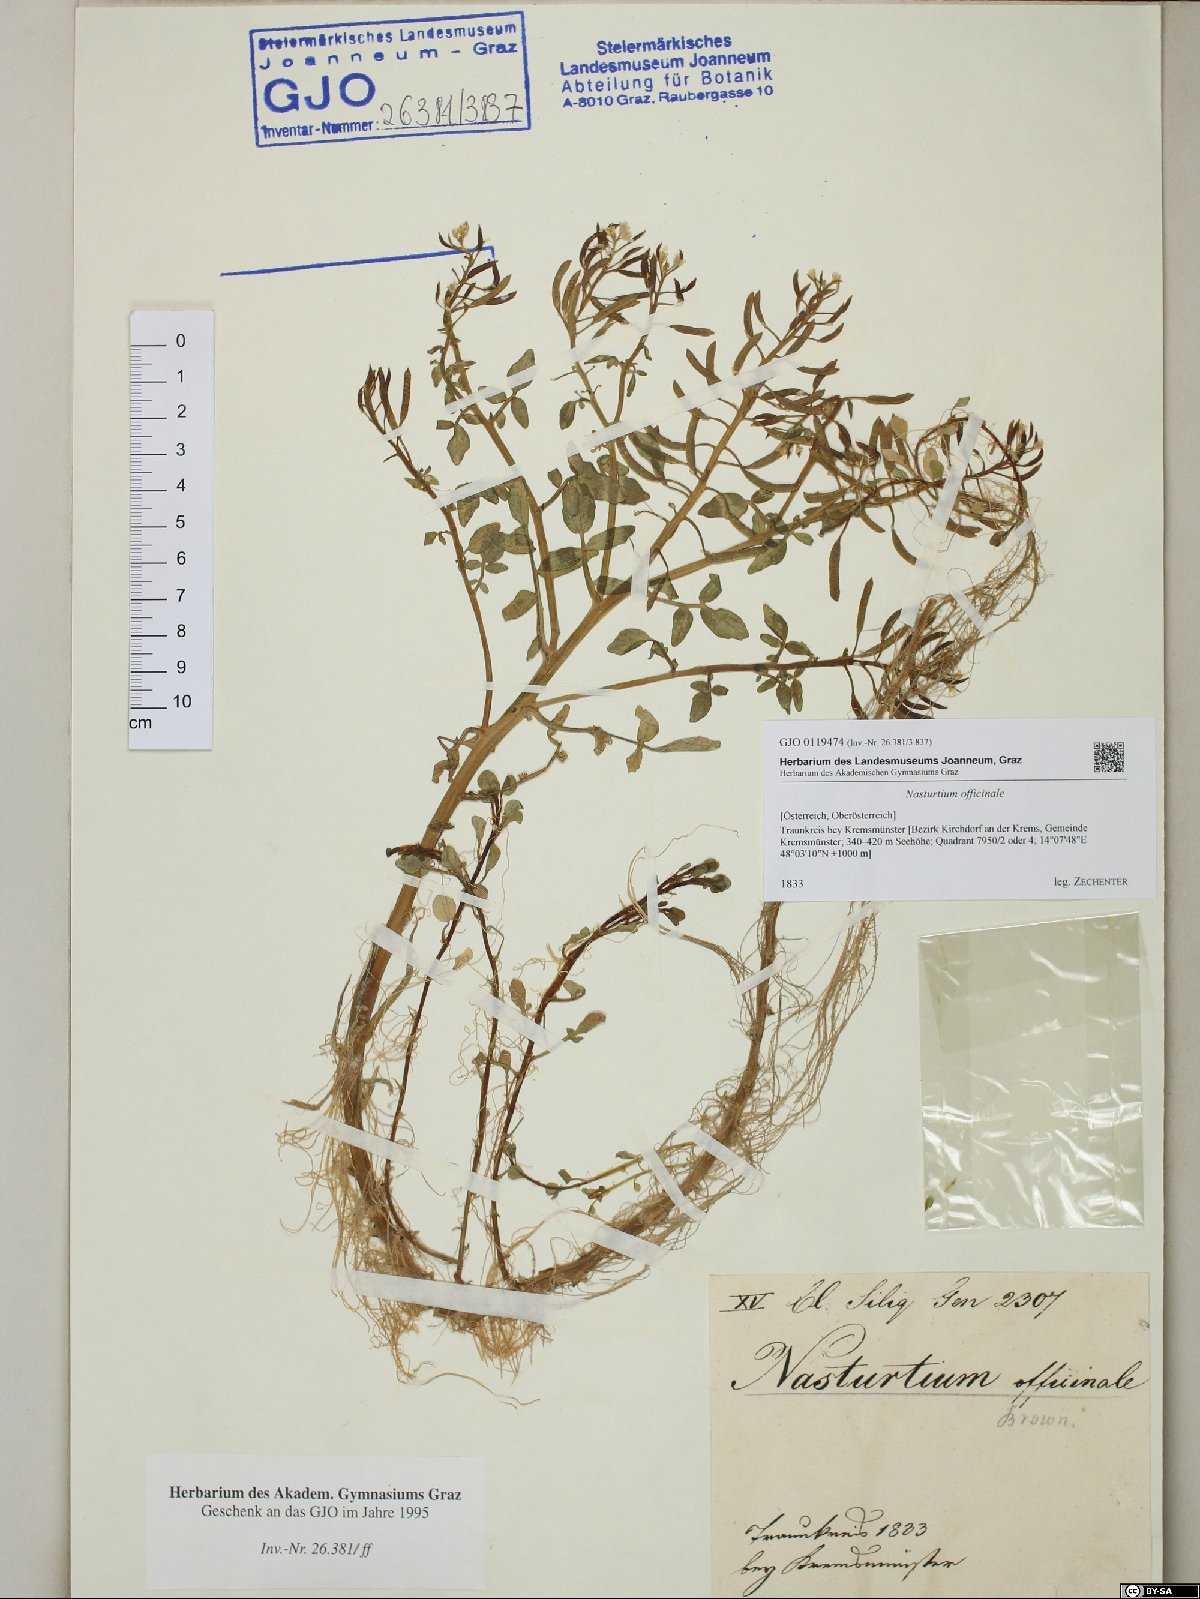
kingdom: Plantae
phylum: Tracheophyta
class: Magnoliopsida
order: Brassicales
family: Brassicaceae
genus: Nasturtium
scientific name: Nasturtium officinale
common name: Watercress
